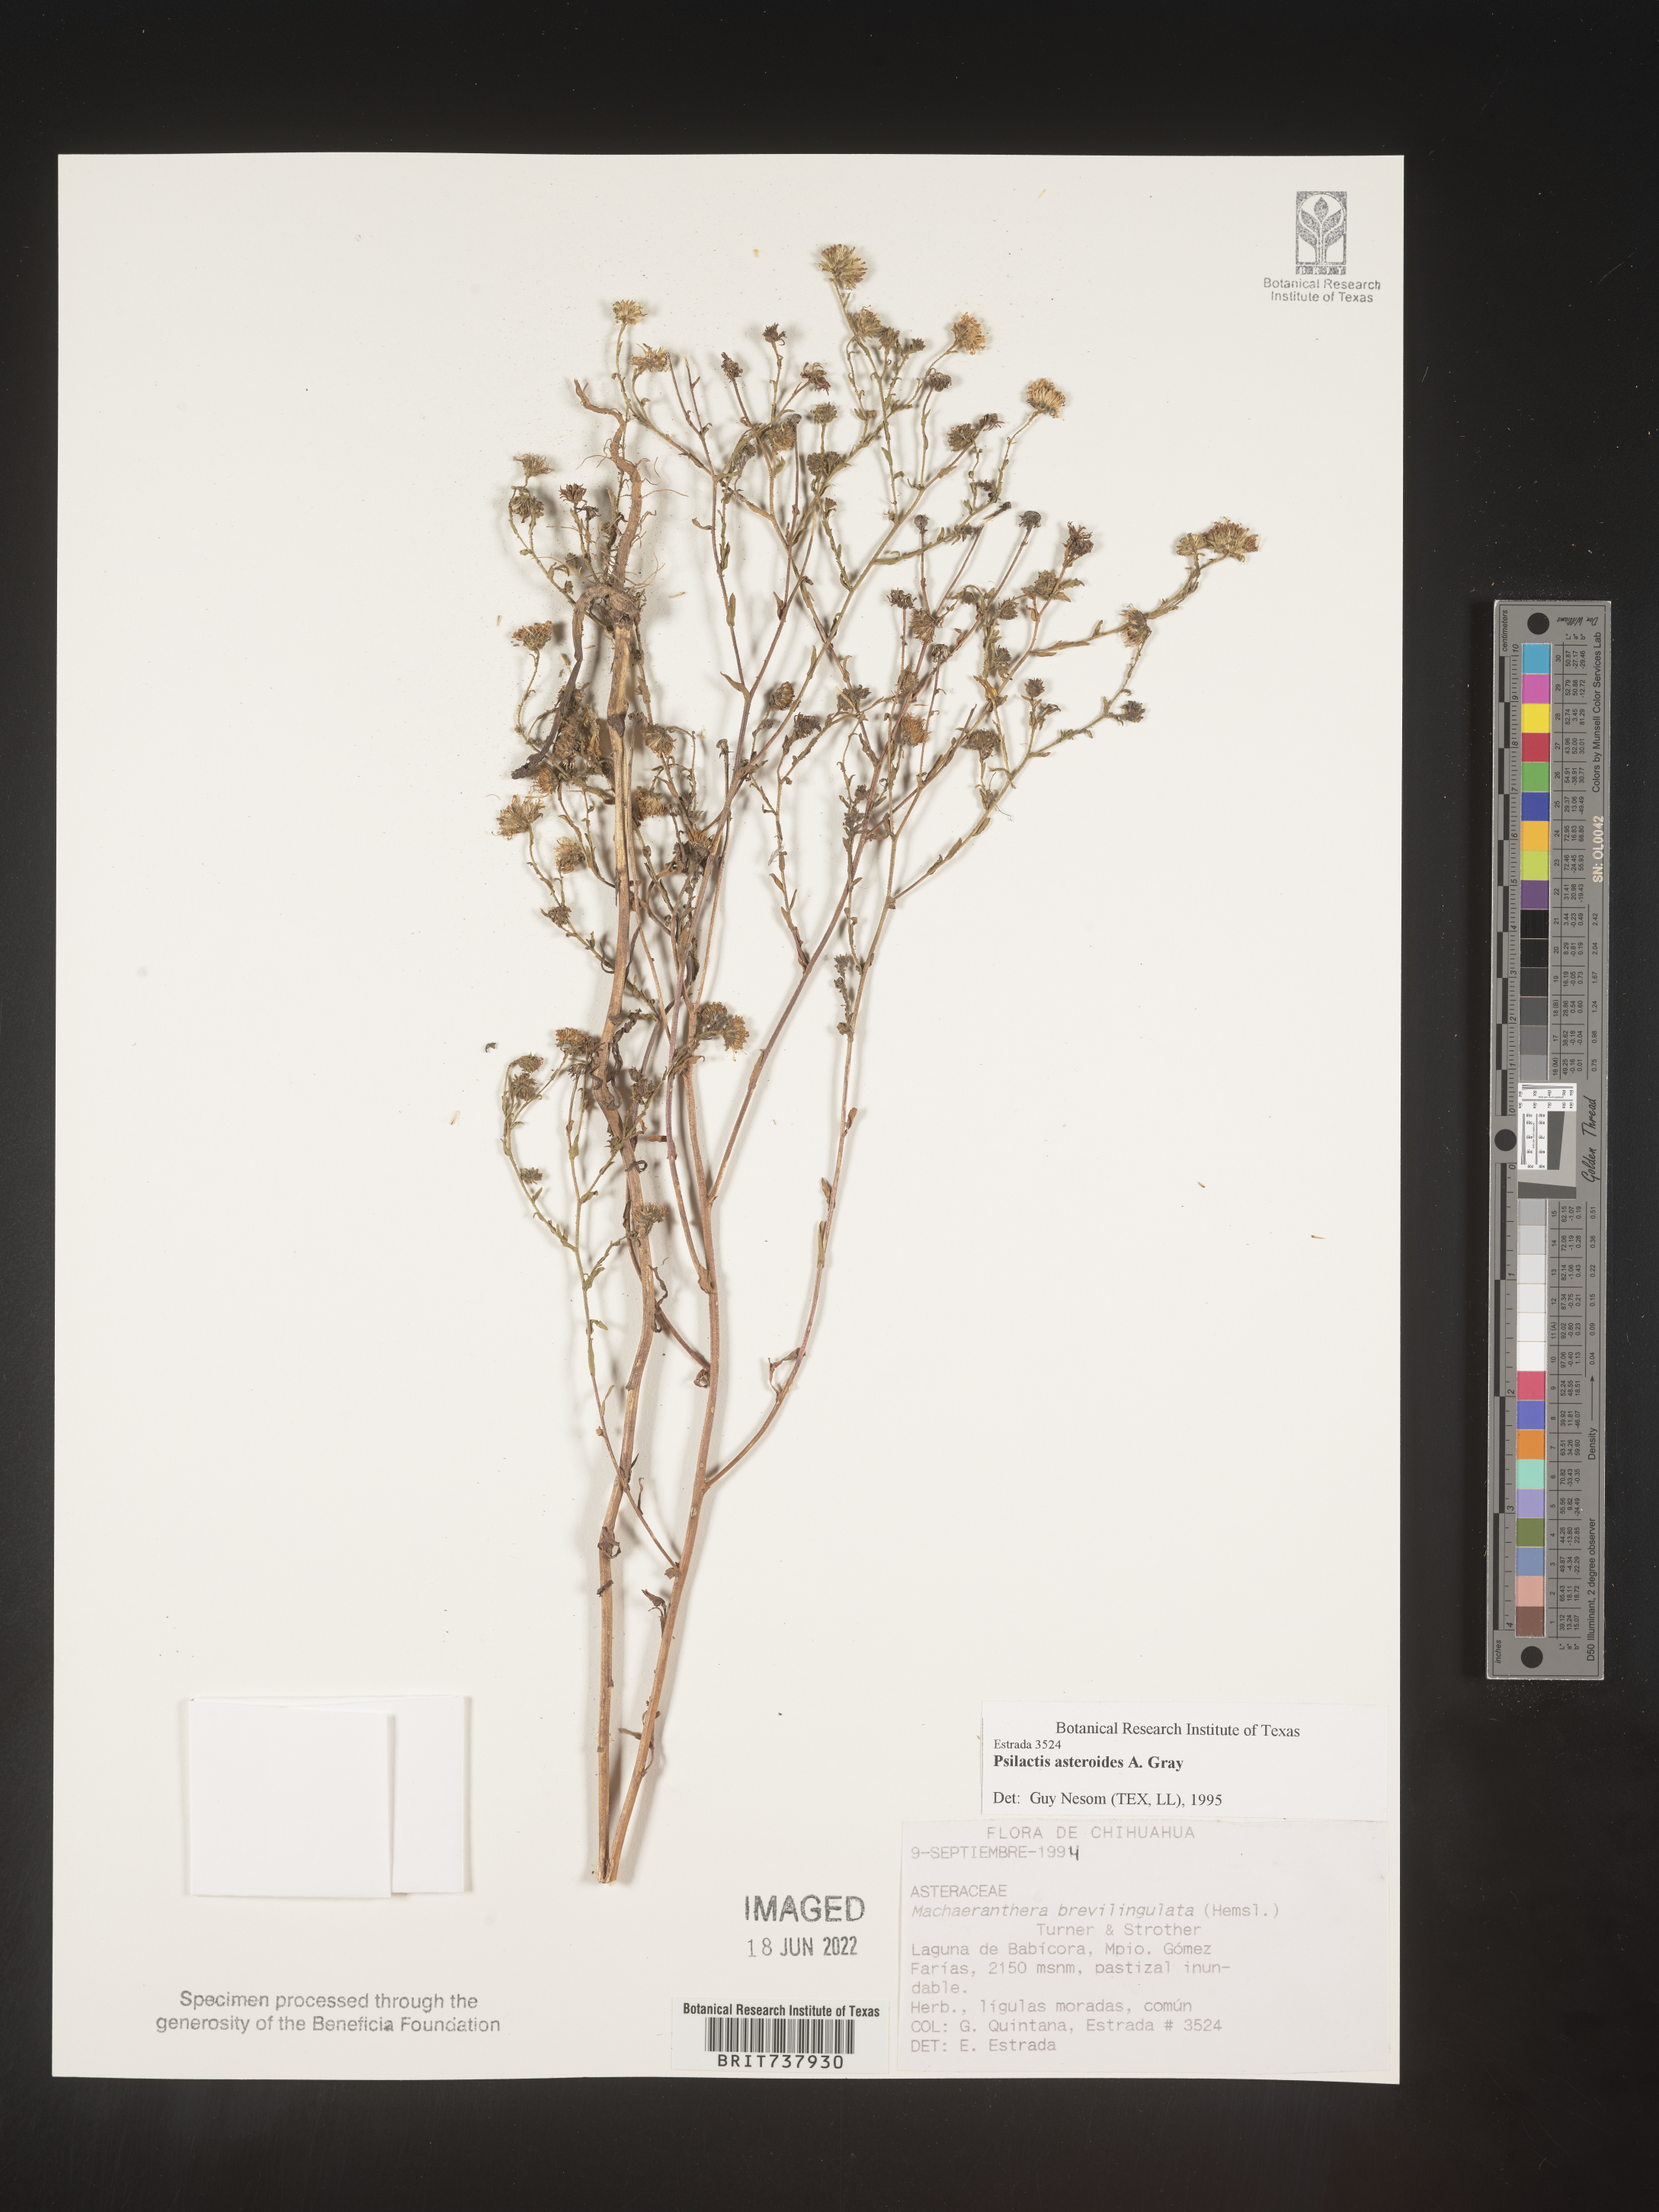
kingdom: Plantae
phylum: Tracheophyta
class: Magnoliopsida
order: Asterales
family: Asteraceae
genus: Psilactis
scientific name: Psilactis asteroides
